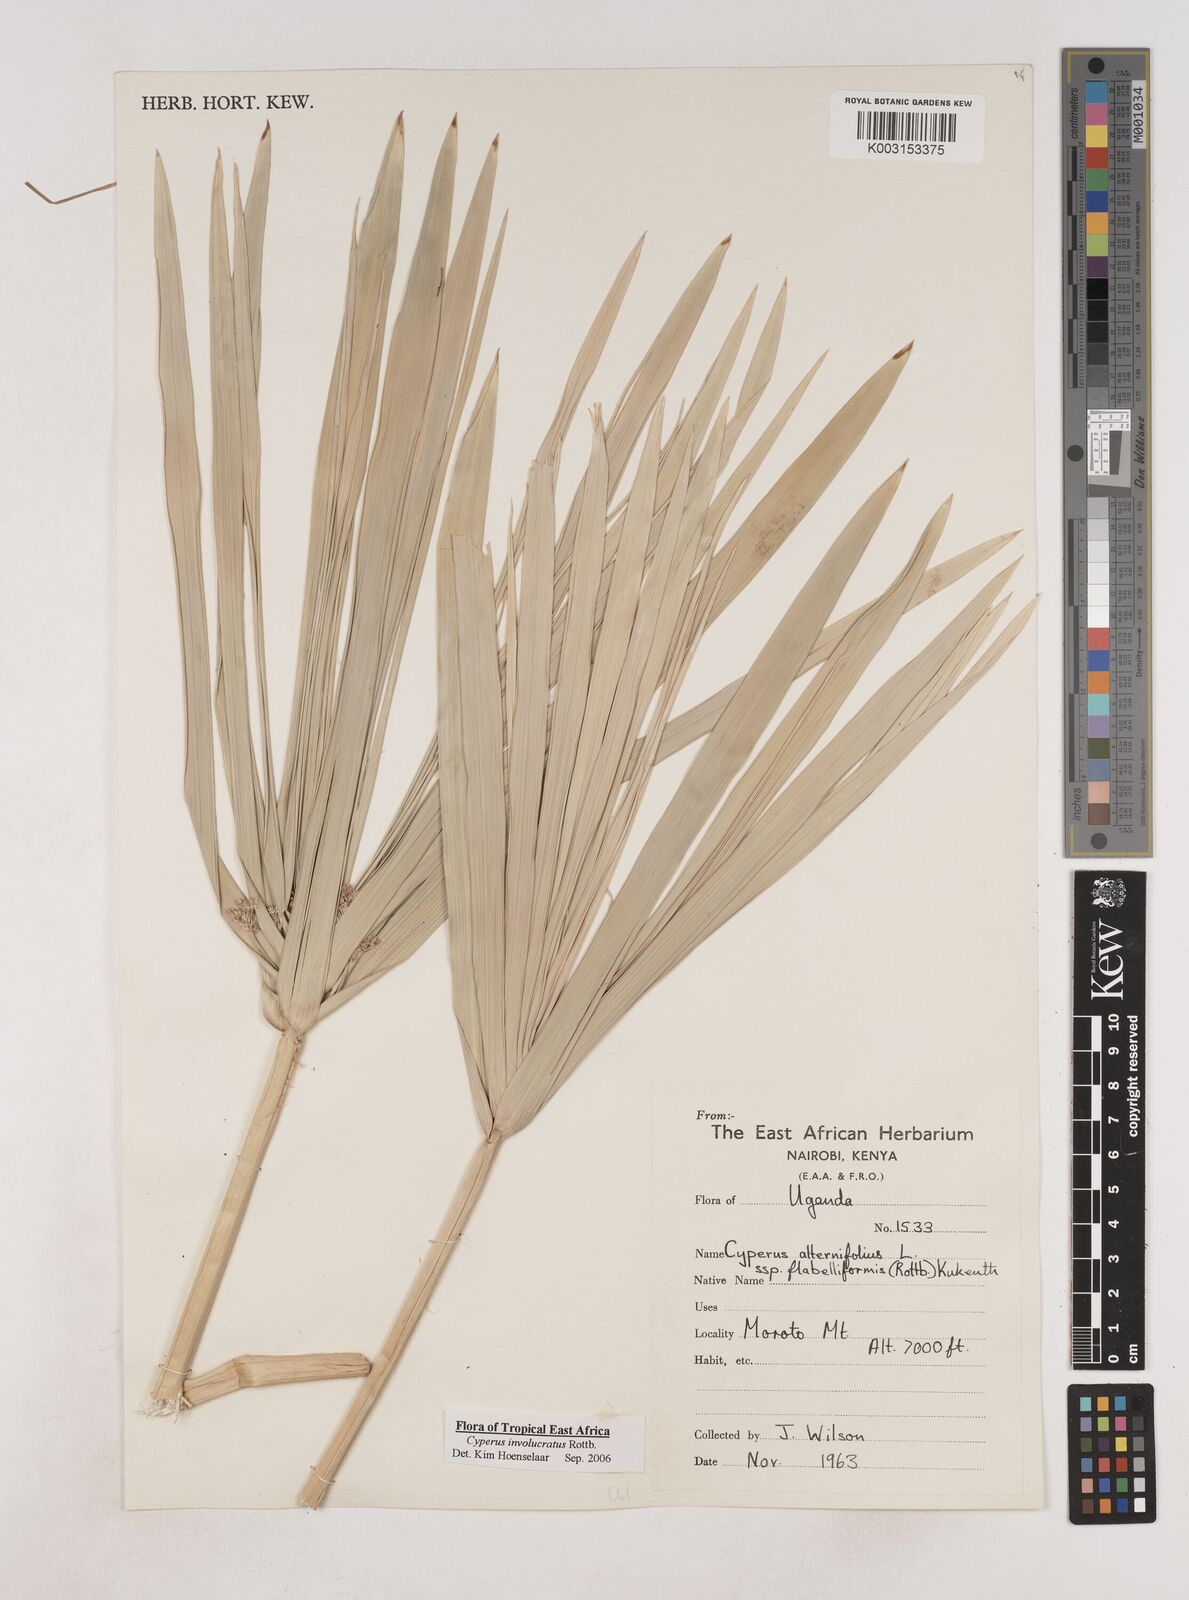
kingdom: Plantae
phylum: Tracheophyta
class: Liliopsida
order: Poales
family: Cyperaceae
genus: Cyperus
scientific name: Cyperus alternifolius
